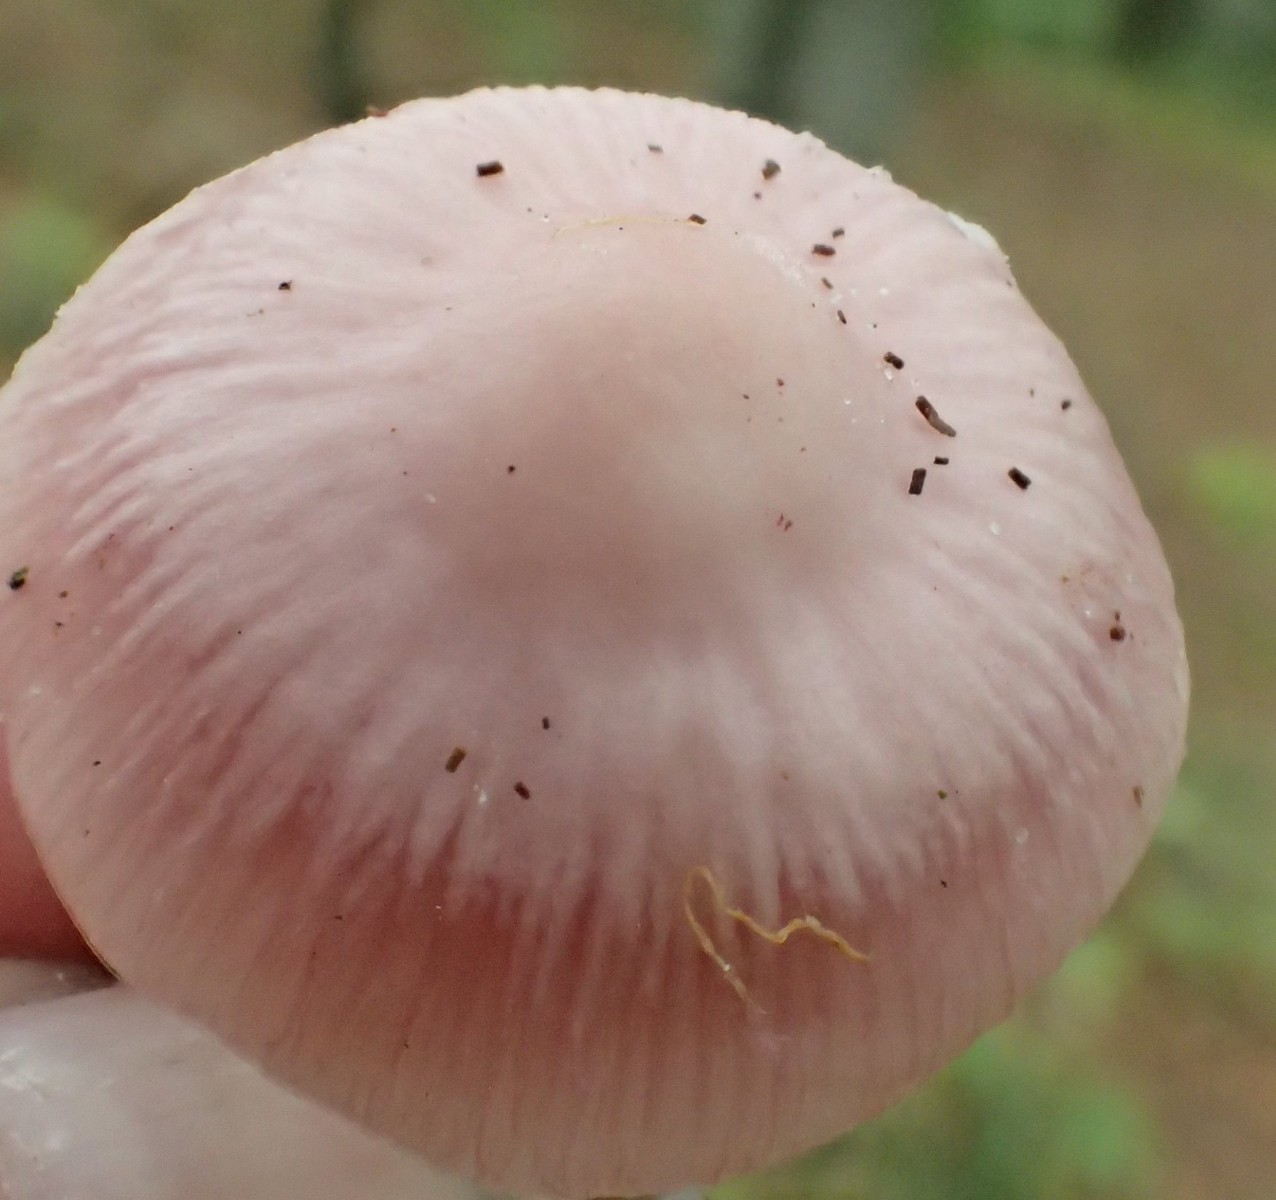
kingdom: Fungi
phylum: Basidiomycota
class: Agaricomycetes
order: Agaricales
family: Mycenaceae
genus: Mycena
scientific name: Mycena rosea
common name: rosa huesvamp
